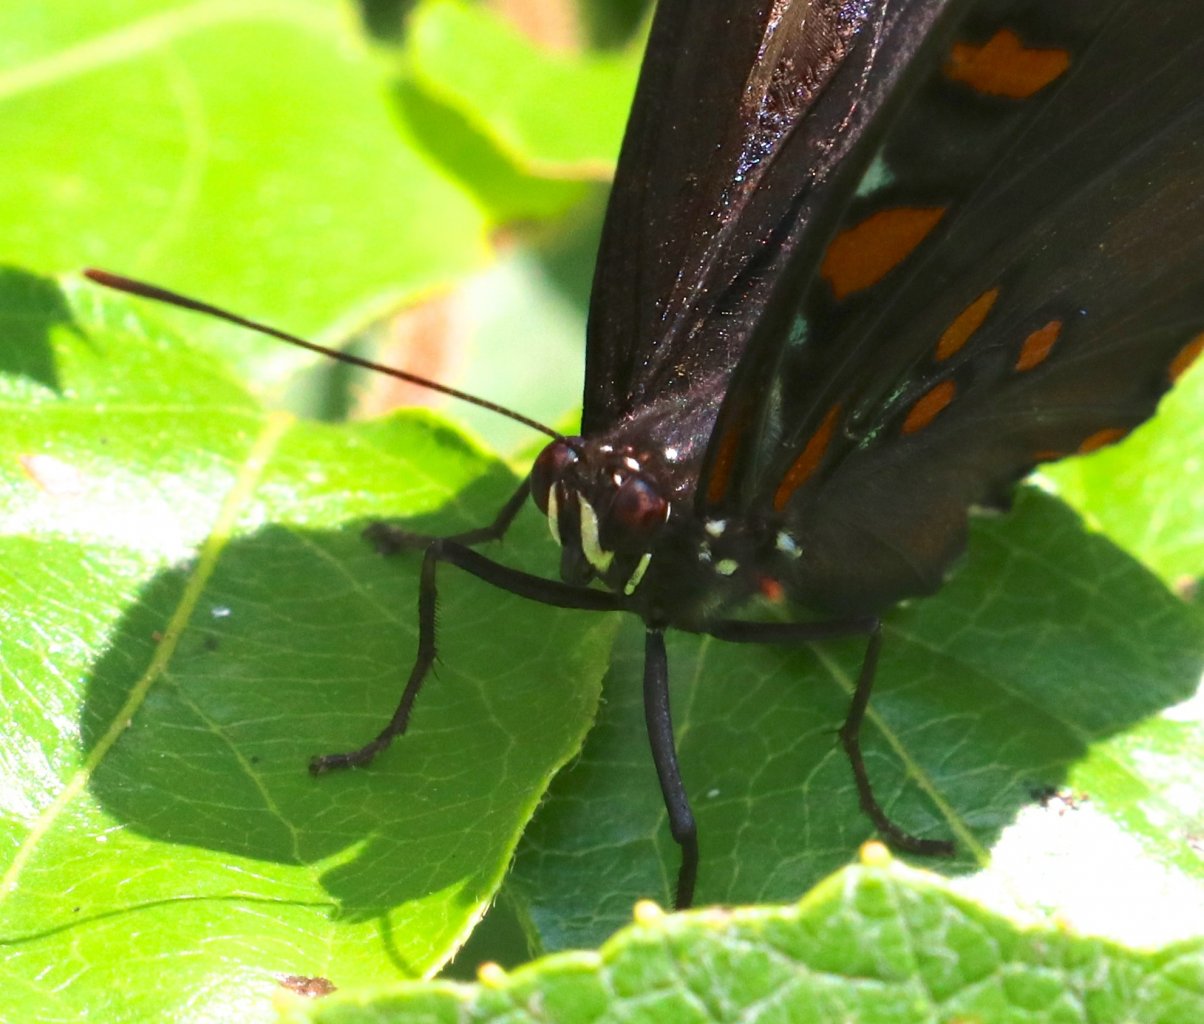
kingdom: Animalia
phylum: Arthropoda
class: Insecta
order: Lepidoptera
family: Nymphalidae
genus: Limenitis
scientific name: Limenitis astyanax
